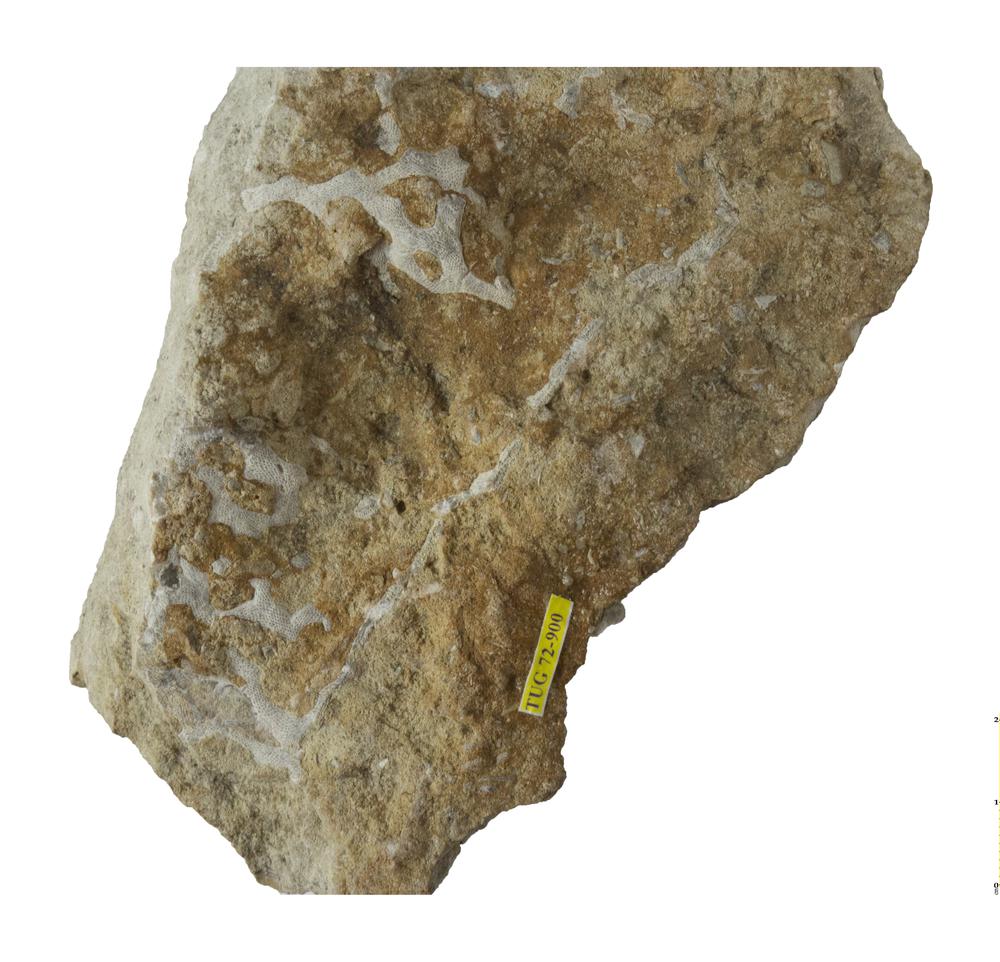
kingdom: Animalia
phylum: Bryozoa
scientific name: Bryozoa
